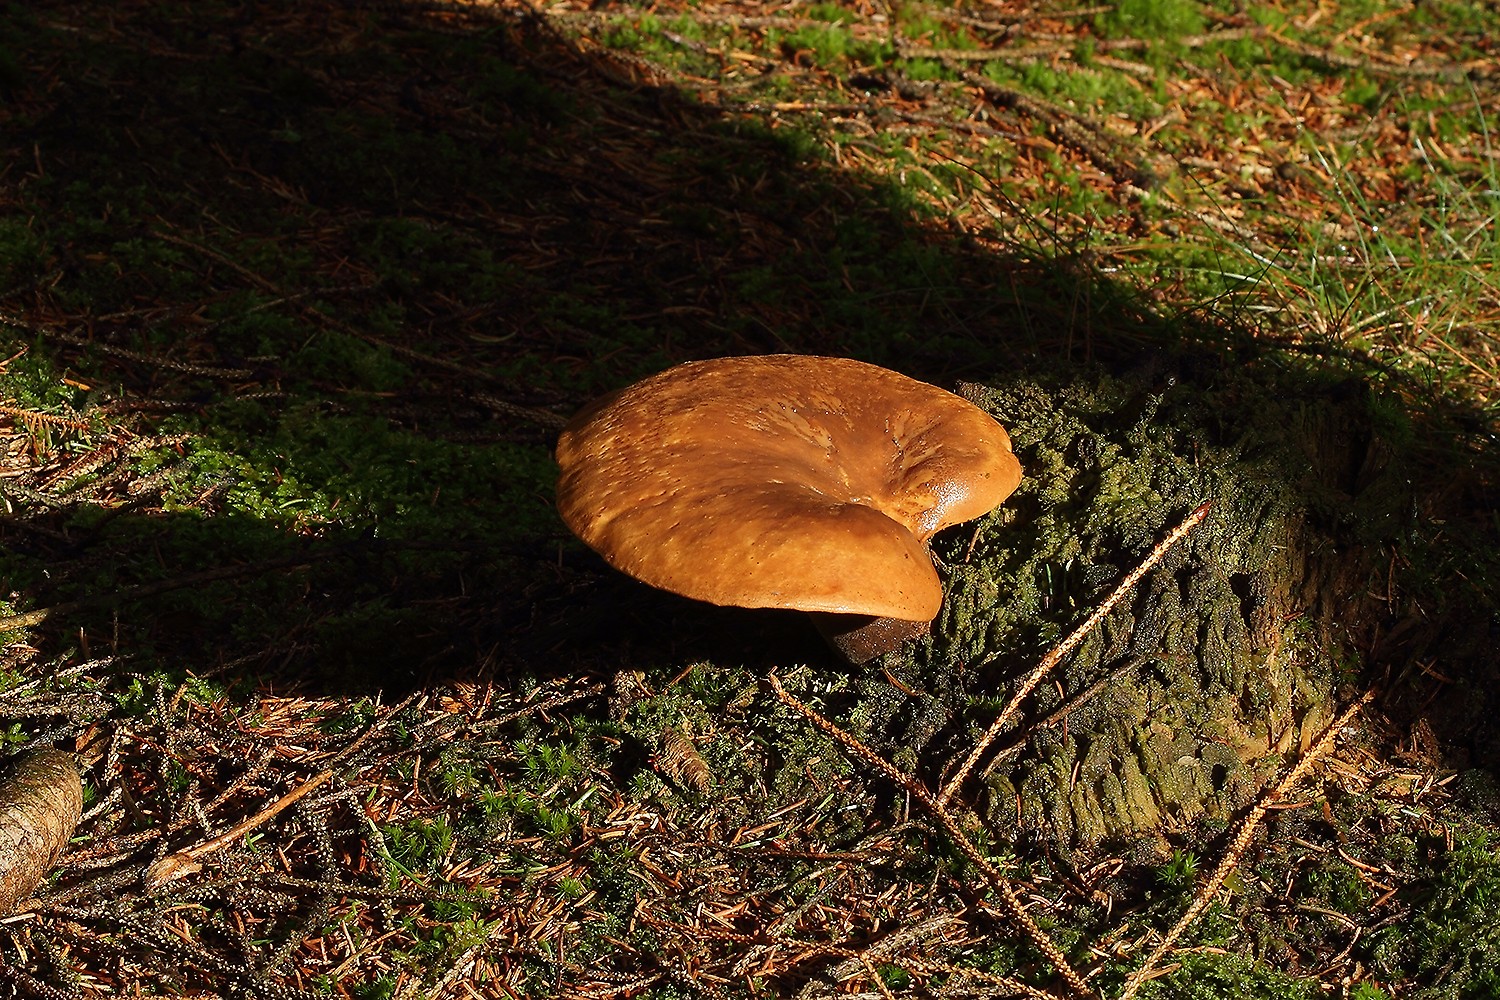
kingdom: Fungi
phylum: Basidiomycota
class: Agaricomycetes
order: Boletales
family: Tapinellaceae
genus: Tapinella
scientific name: Tapinella atrotomentosa
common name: sortfiltet viftesvamp
